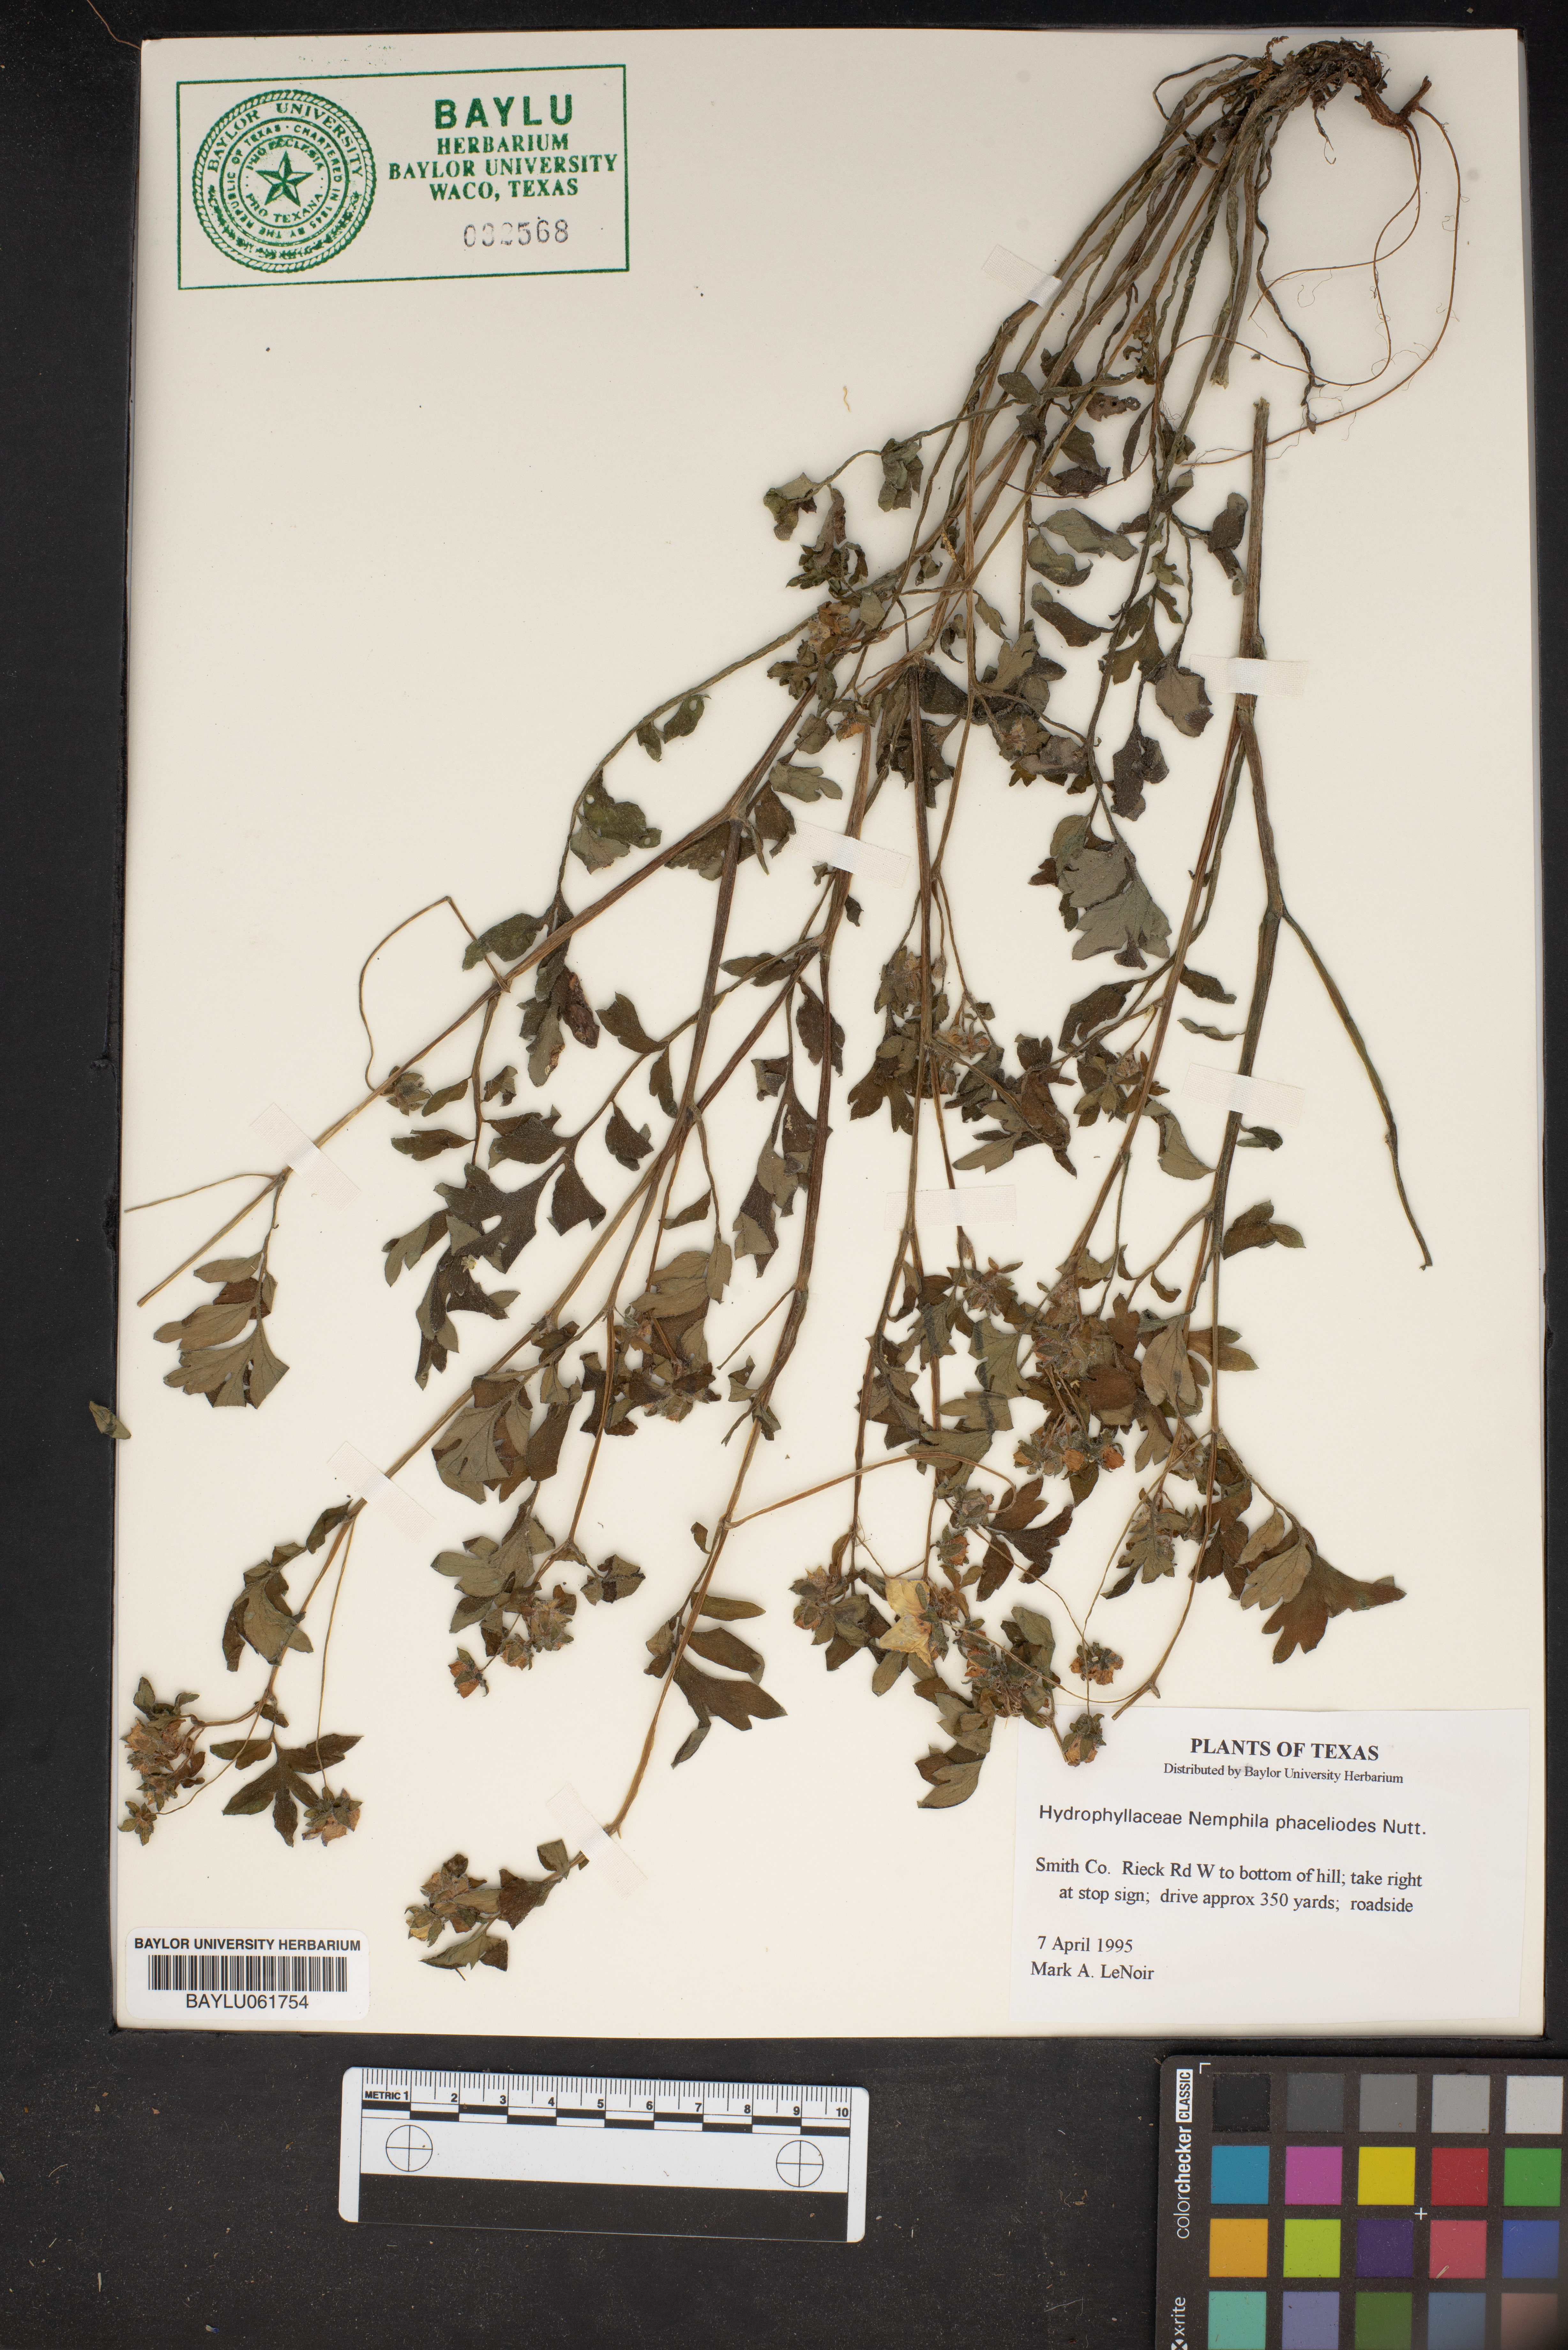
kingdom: Plantae
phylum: Tracheophyta
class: Magnoliopsida
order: Boraginales
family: Hydrophyllaceae
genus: Nemophila
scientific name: Nemophila phacelioides
